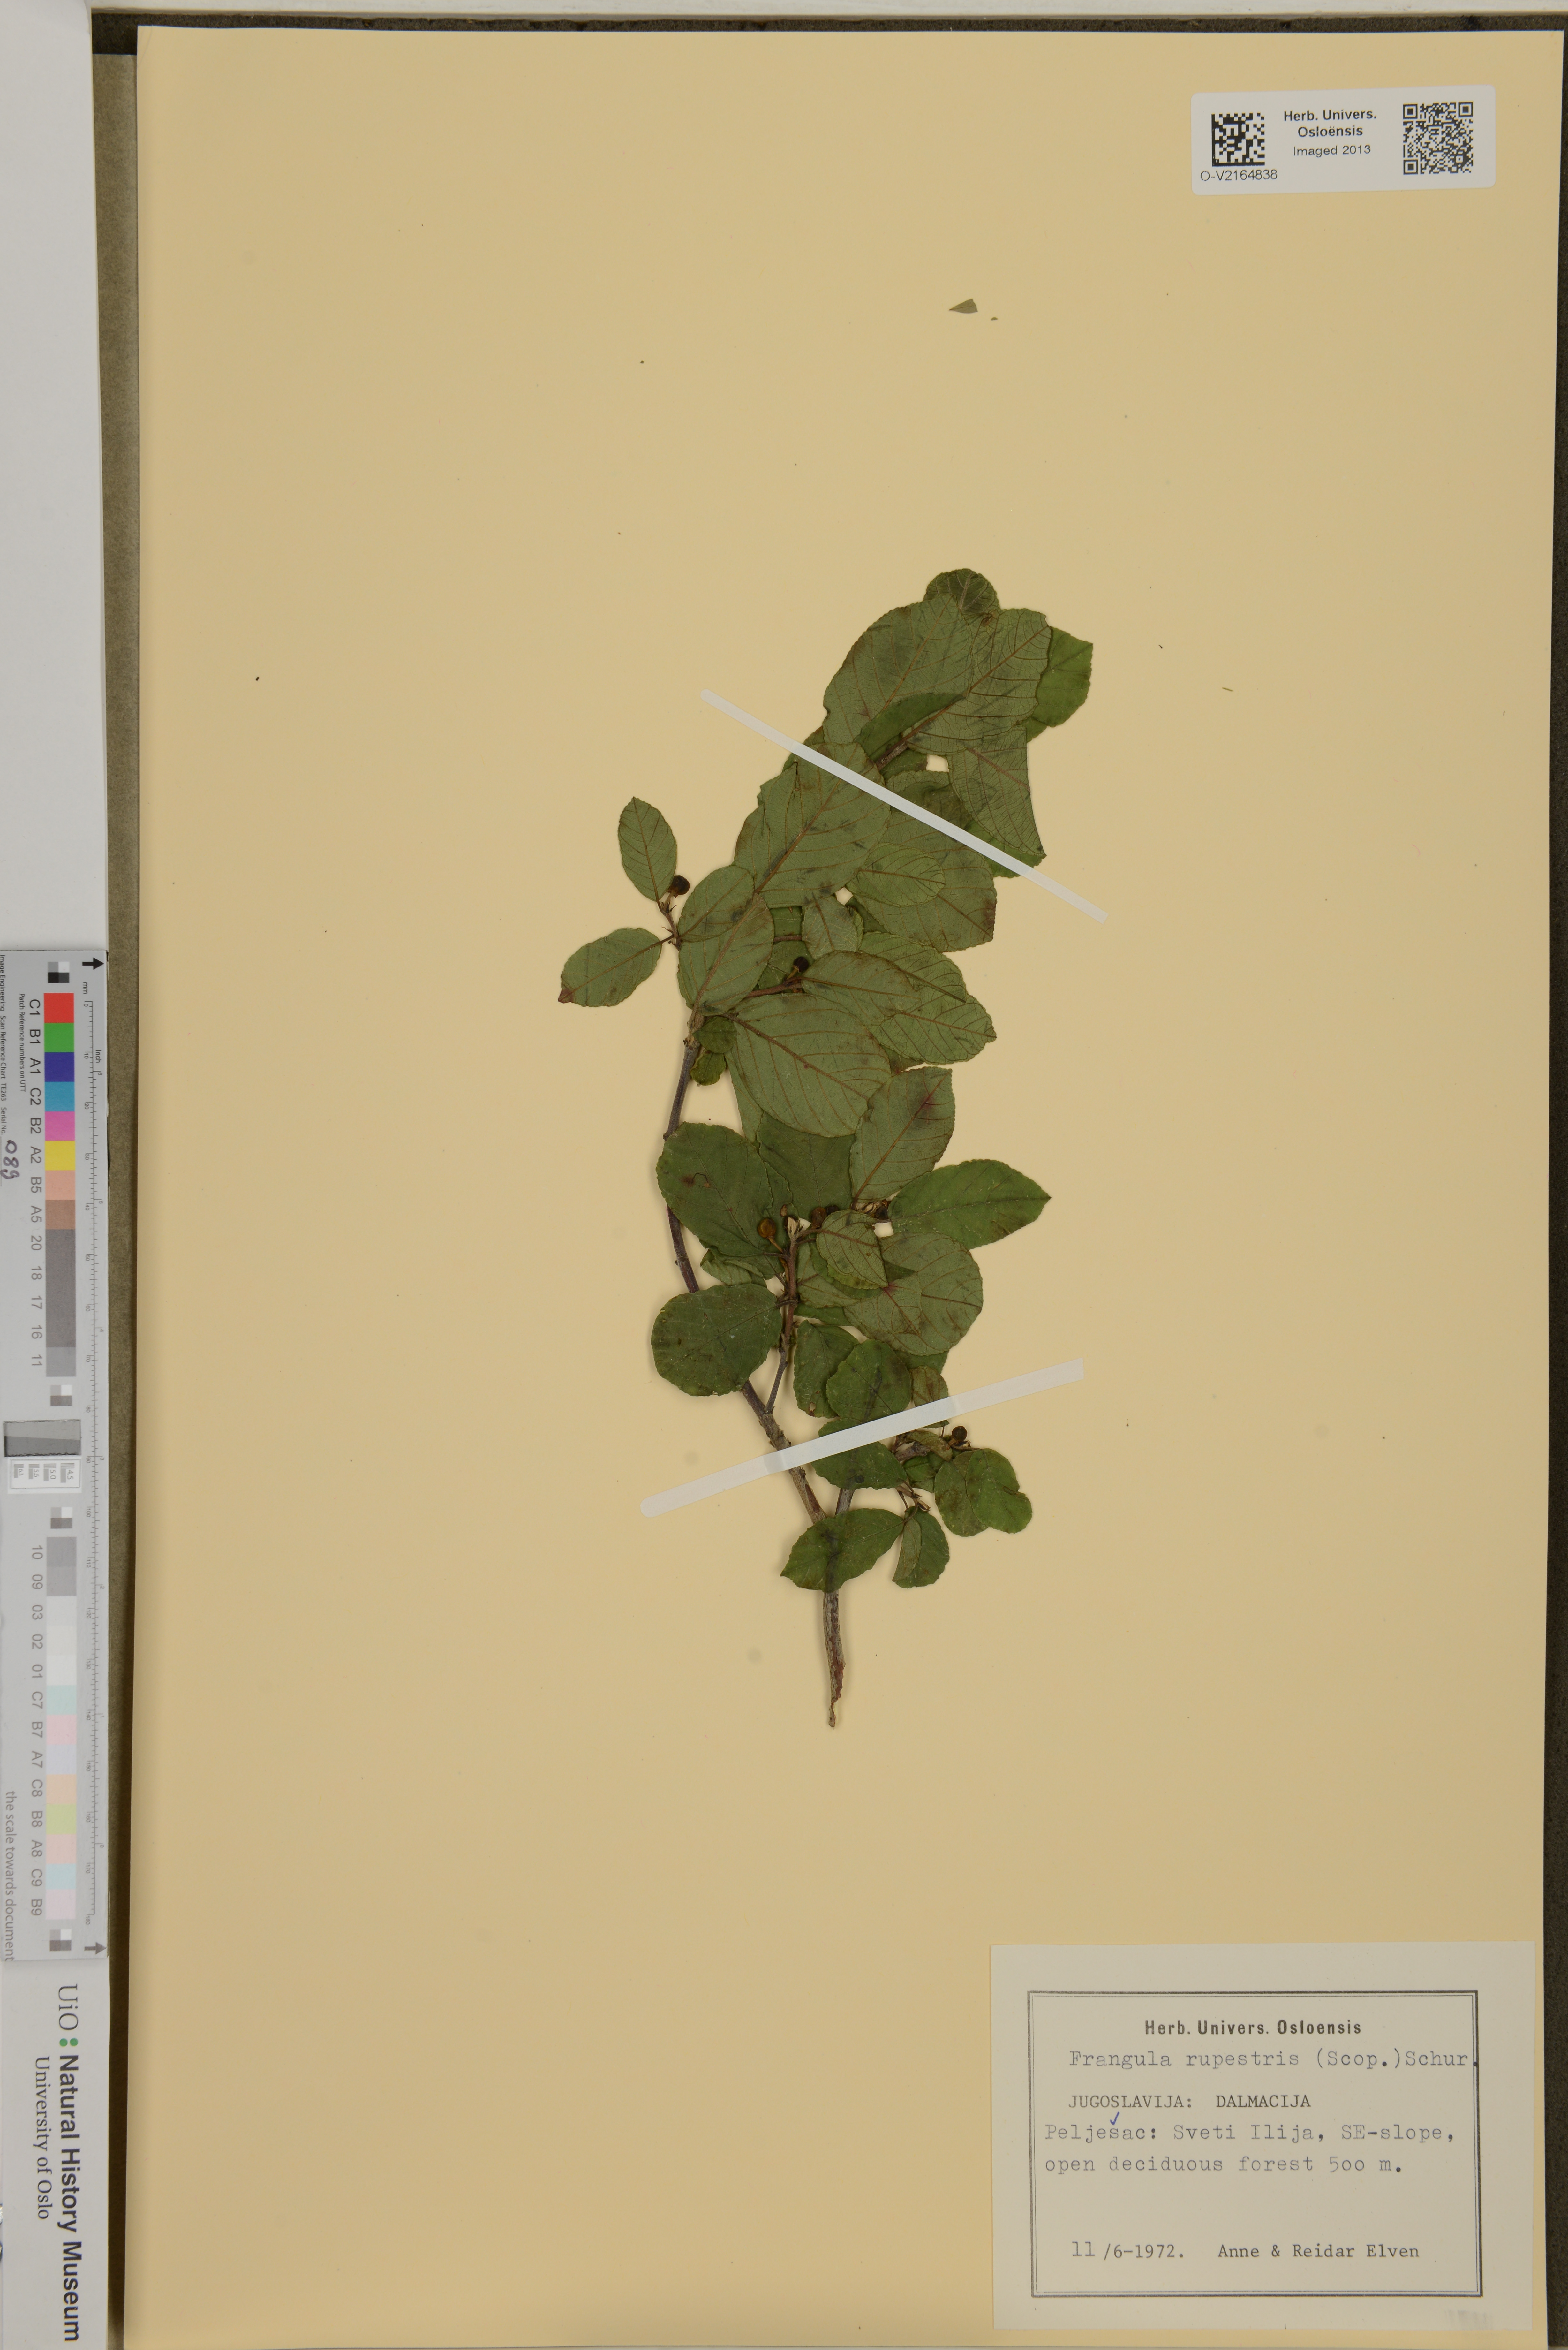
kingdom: Plantae
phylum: Tracheophyta
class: Magnoliopsida
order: Rosales
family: Rhamnaceae
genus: Rhamnus
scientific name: Rhamnus procumbens
